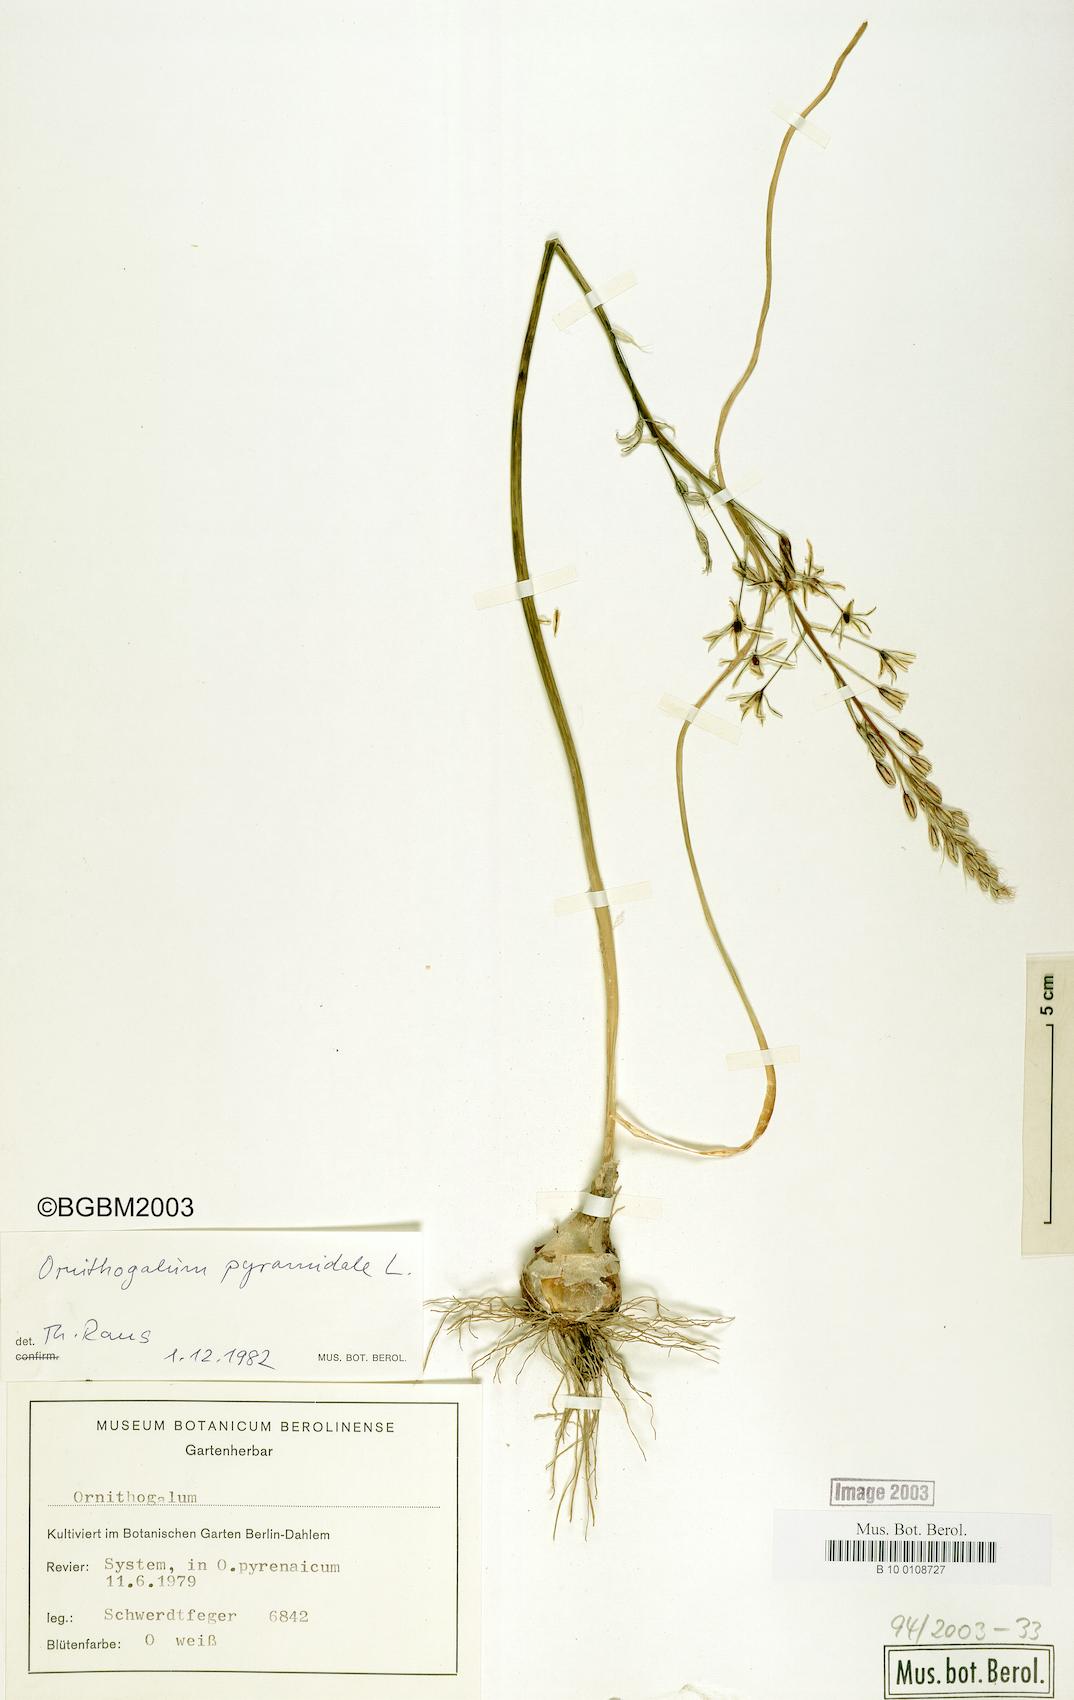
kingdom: Plantae
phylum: Tracheophyta
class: Liliopsida
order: Asparagales
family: Asparagaceae
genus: Ornithogalum
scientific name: Ornithogalum pyramidale
